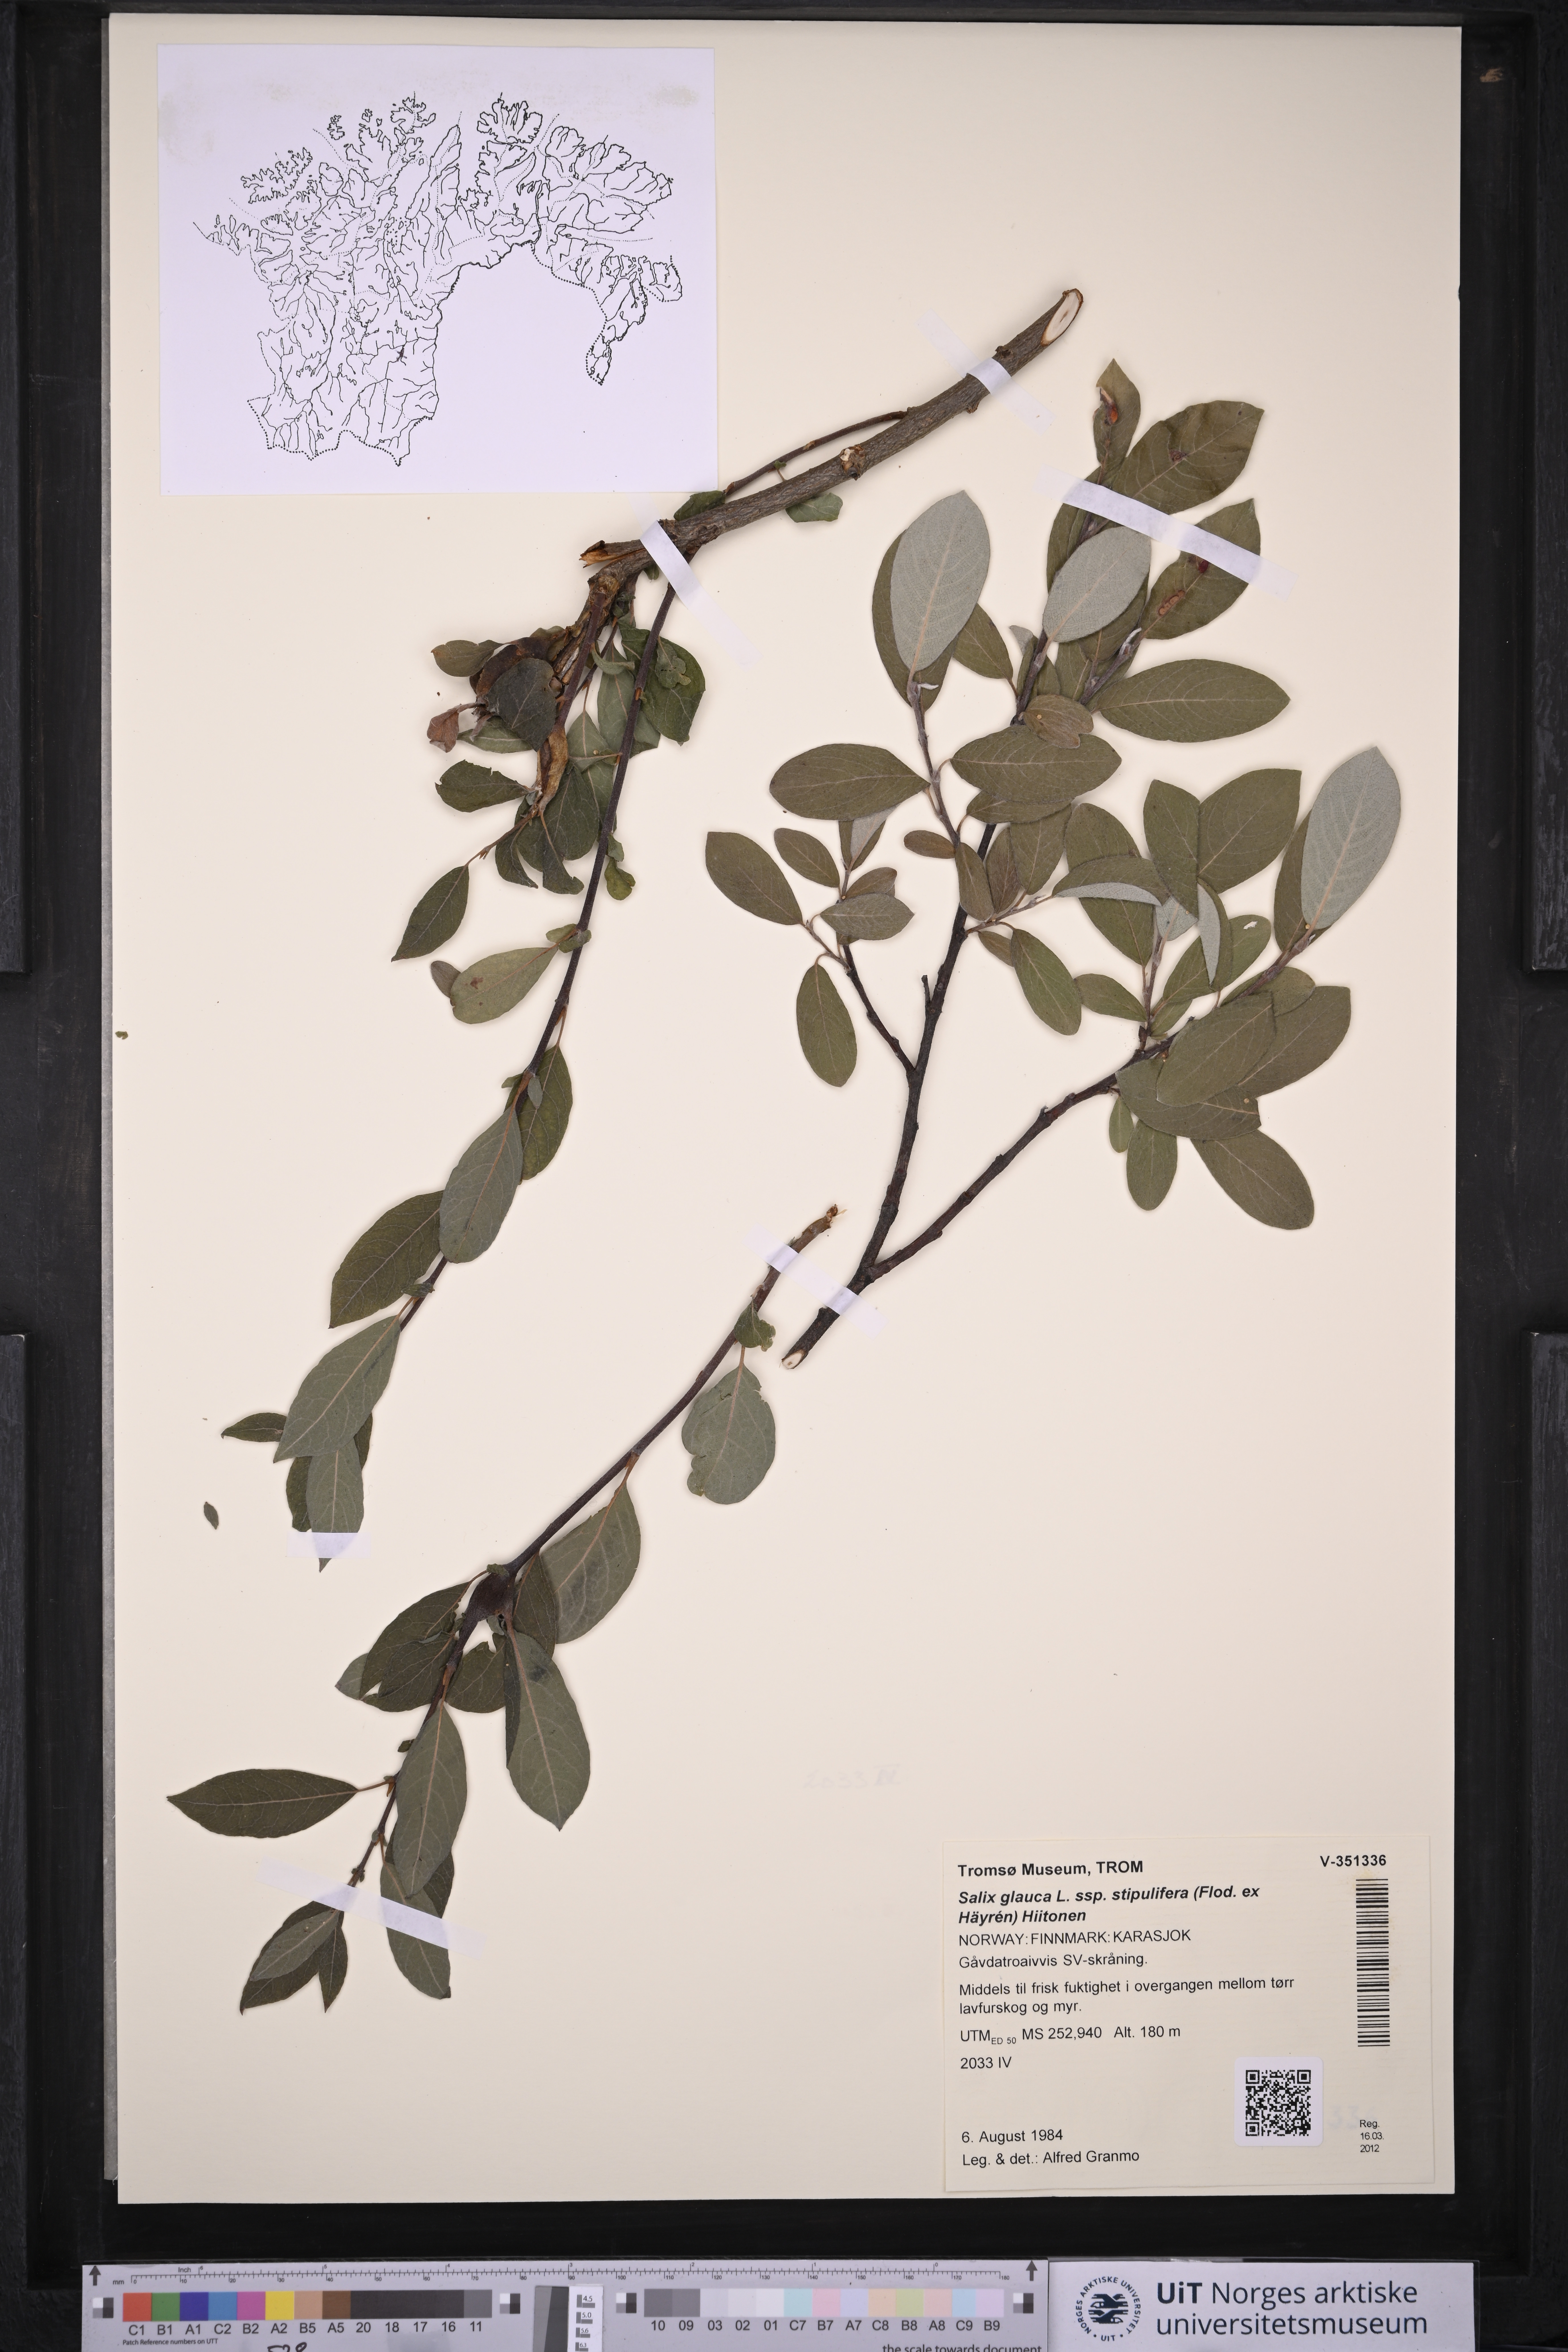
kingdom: Plantae
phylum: Tracheophyta
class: Magnoliopsida
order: Malpighiales
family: Salicaceae
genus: Salix
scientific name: Salix glauca
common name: Glaucous willow
